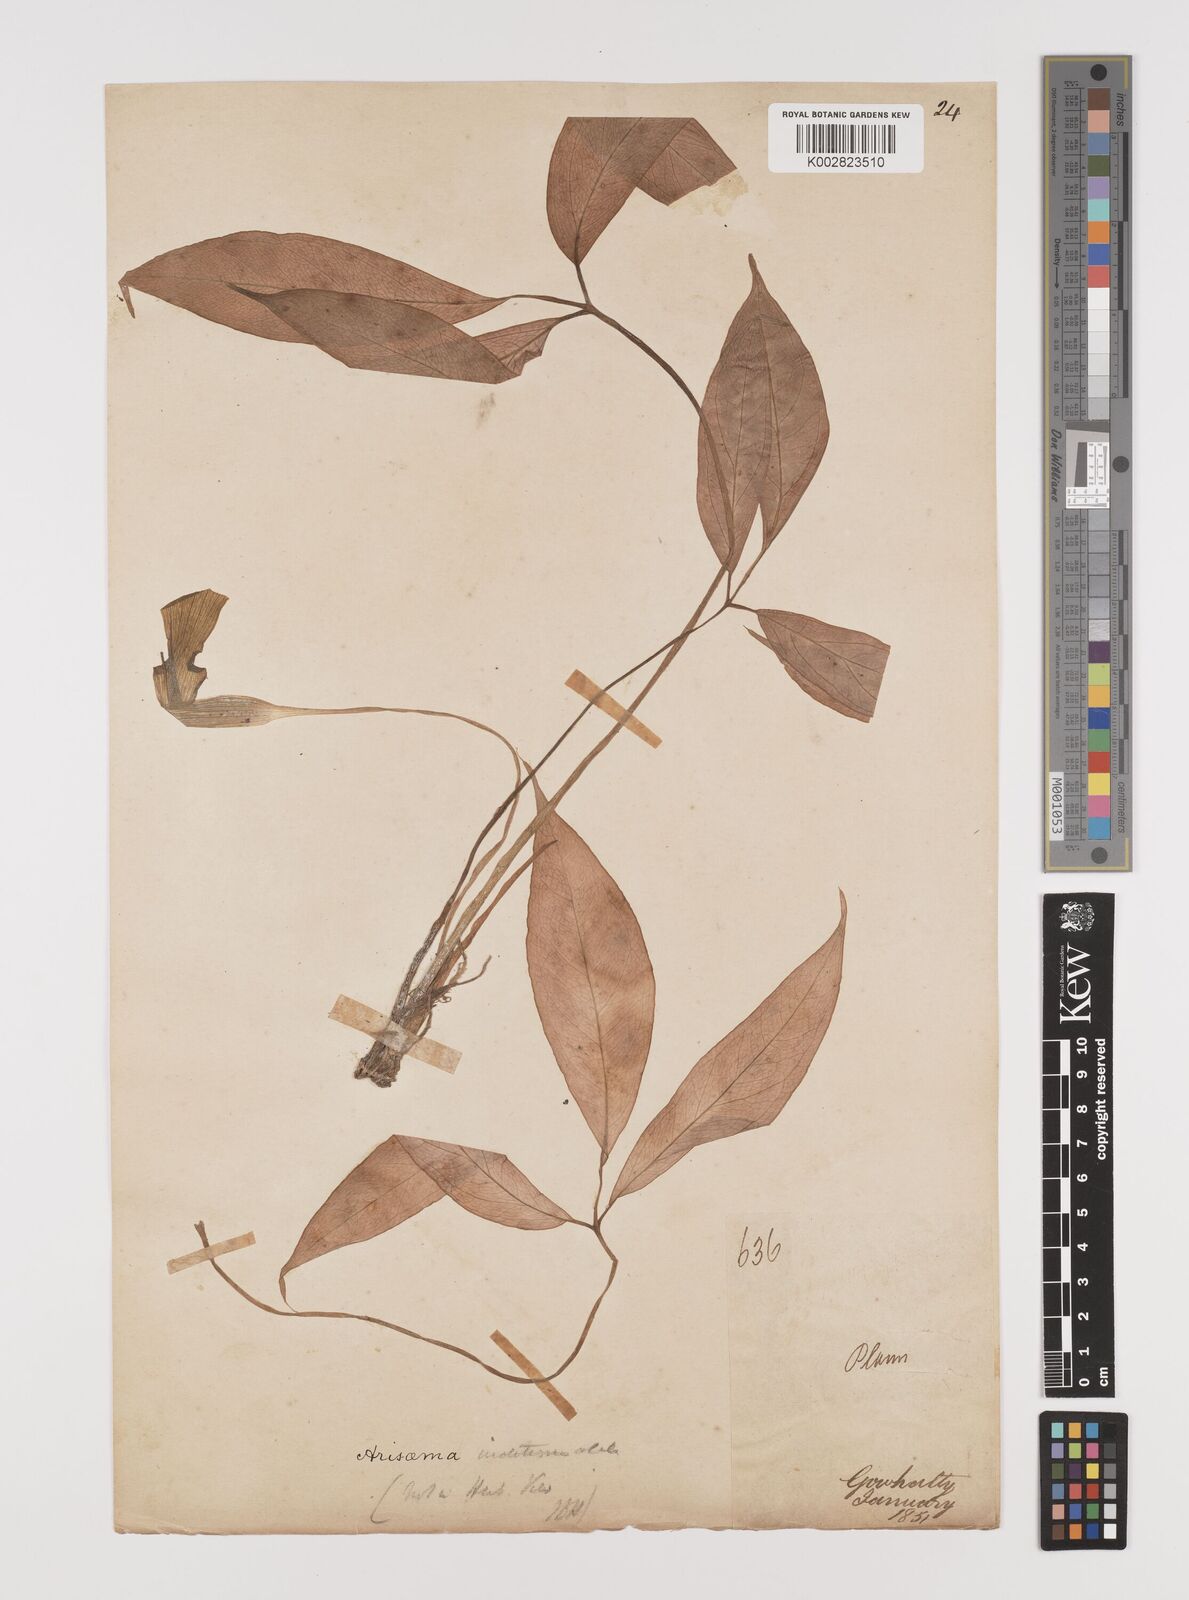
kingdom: Plantae
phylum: Tracheophyta
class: Liliopsida
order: Alismatales
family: Araceae
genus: Arisaema
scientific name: Arisaema
